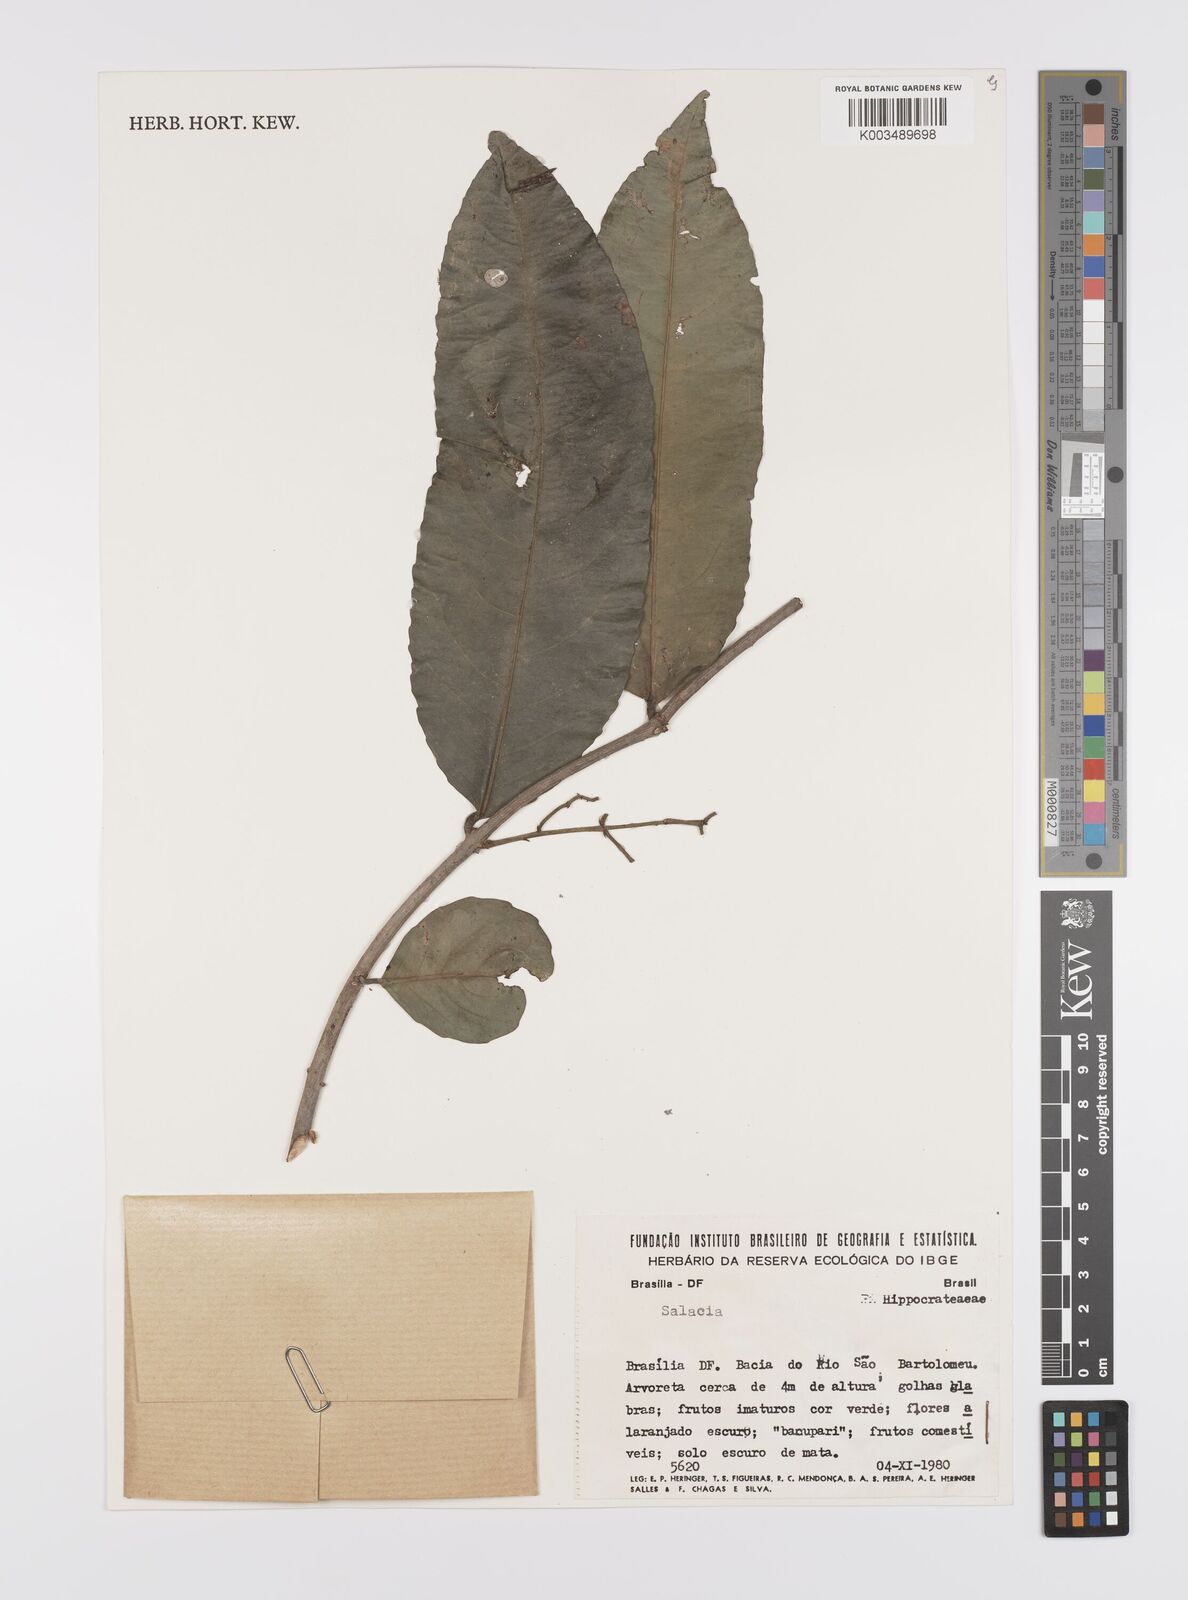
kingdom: Plantae
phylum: Tracheophyta
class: Magnoliopsida
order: Celastrales
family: Celastraceae
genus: Cheiloclinium
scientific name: Cheiloclinium cognatum
